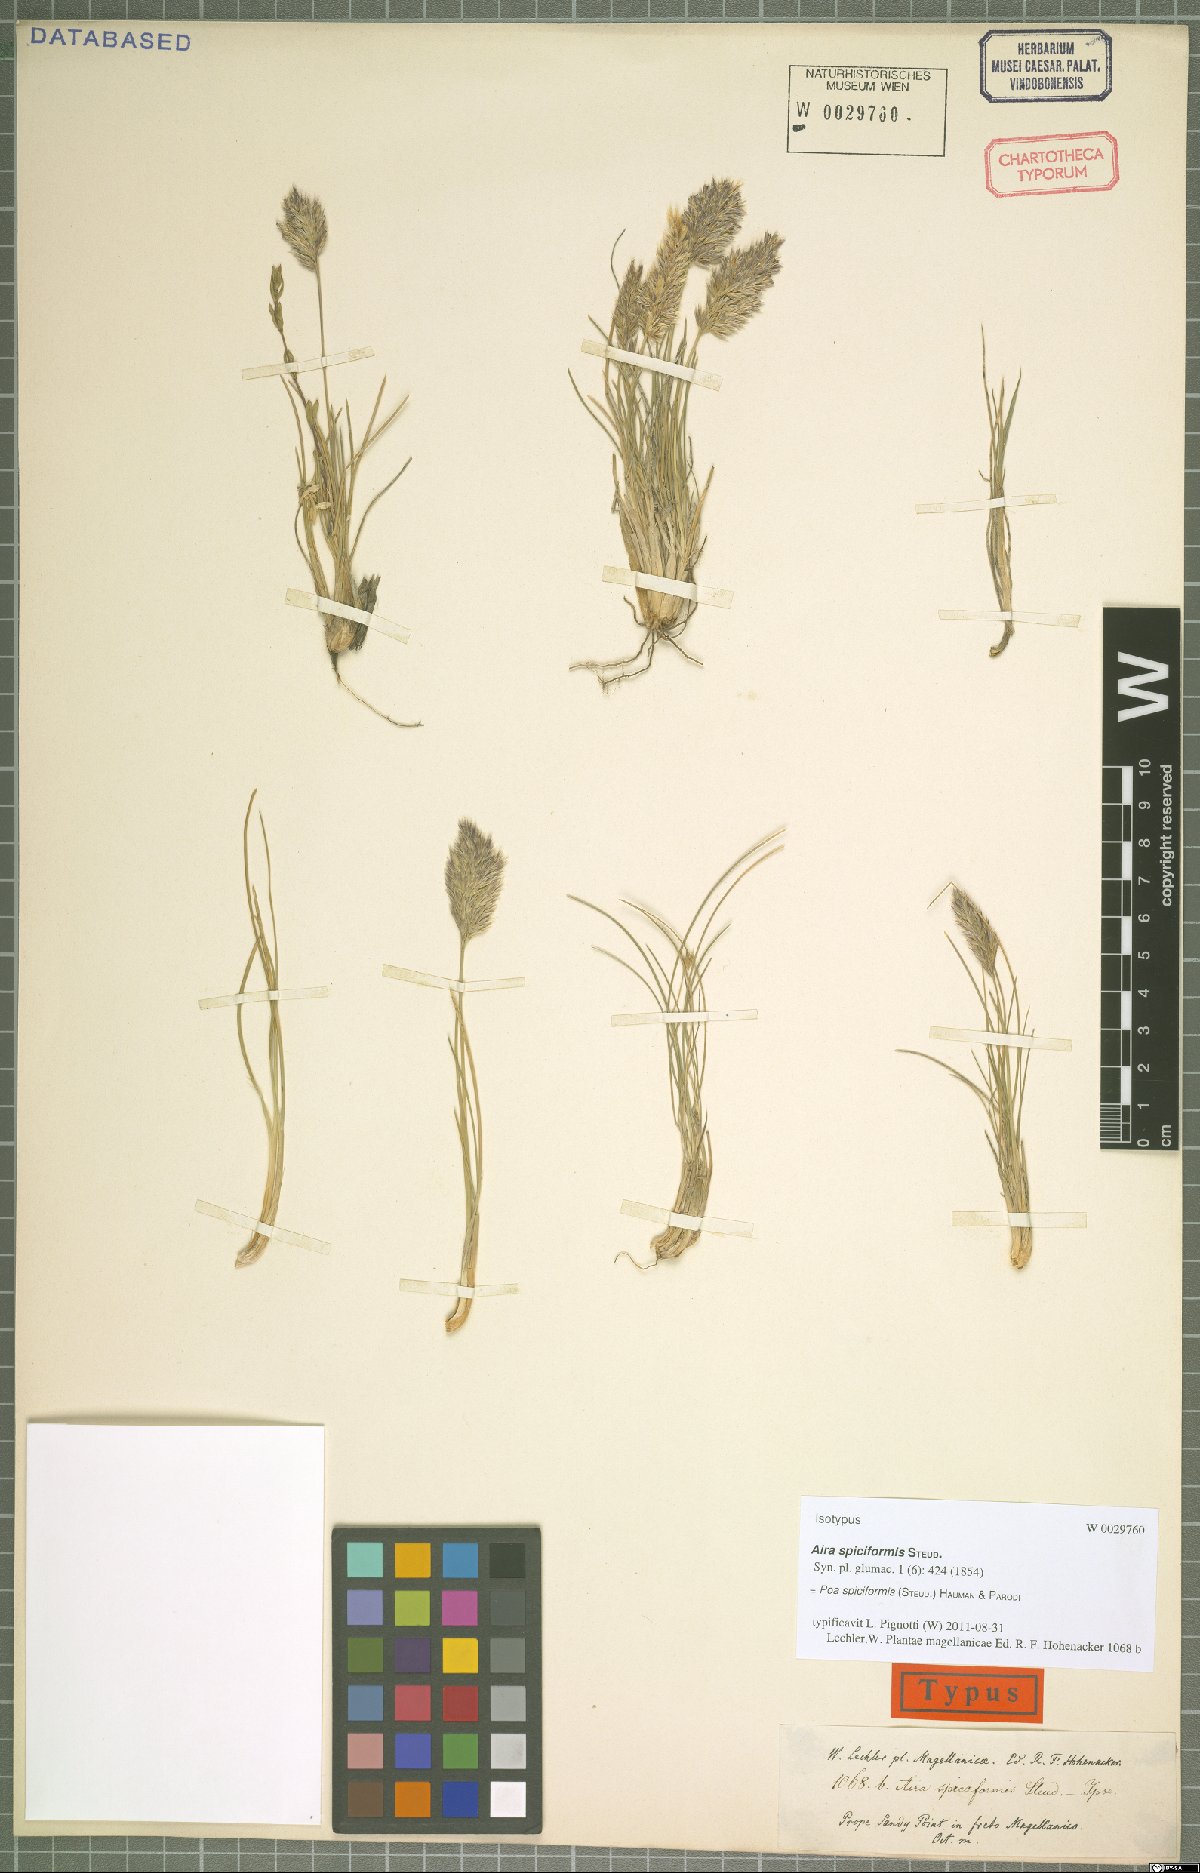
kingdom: Plantae
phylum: Tracheophyta
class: Liliopsida
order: Poales
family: Poaceae
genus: Poa
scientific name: Poa spiciformis
